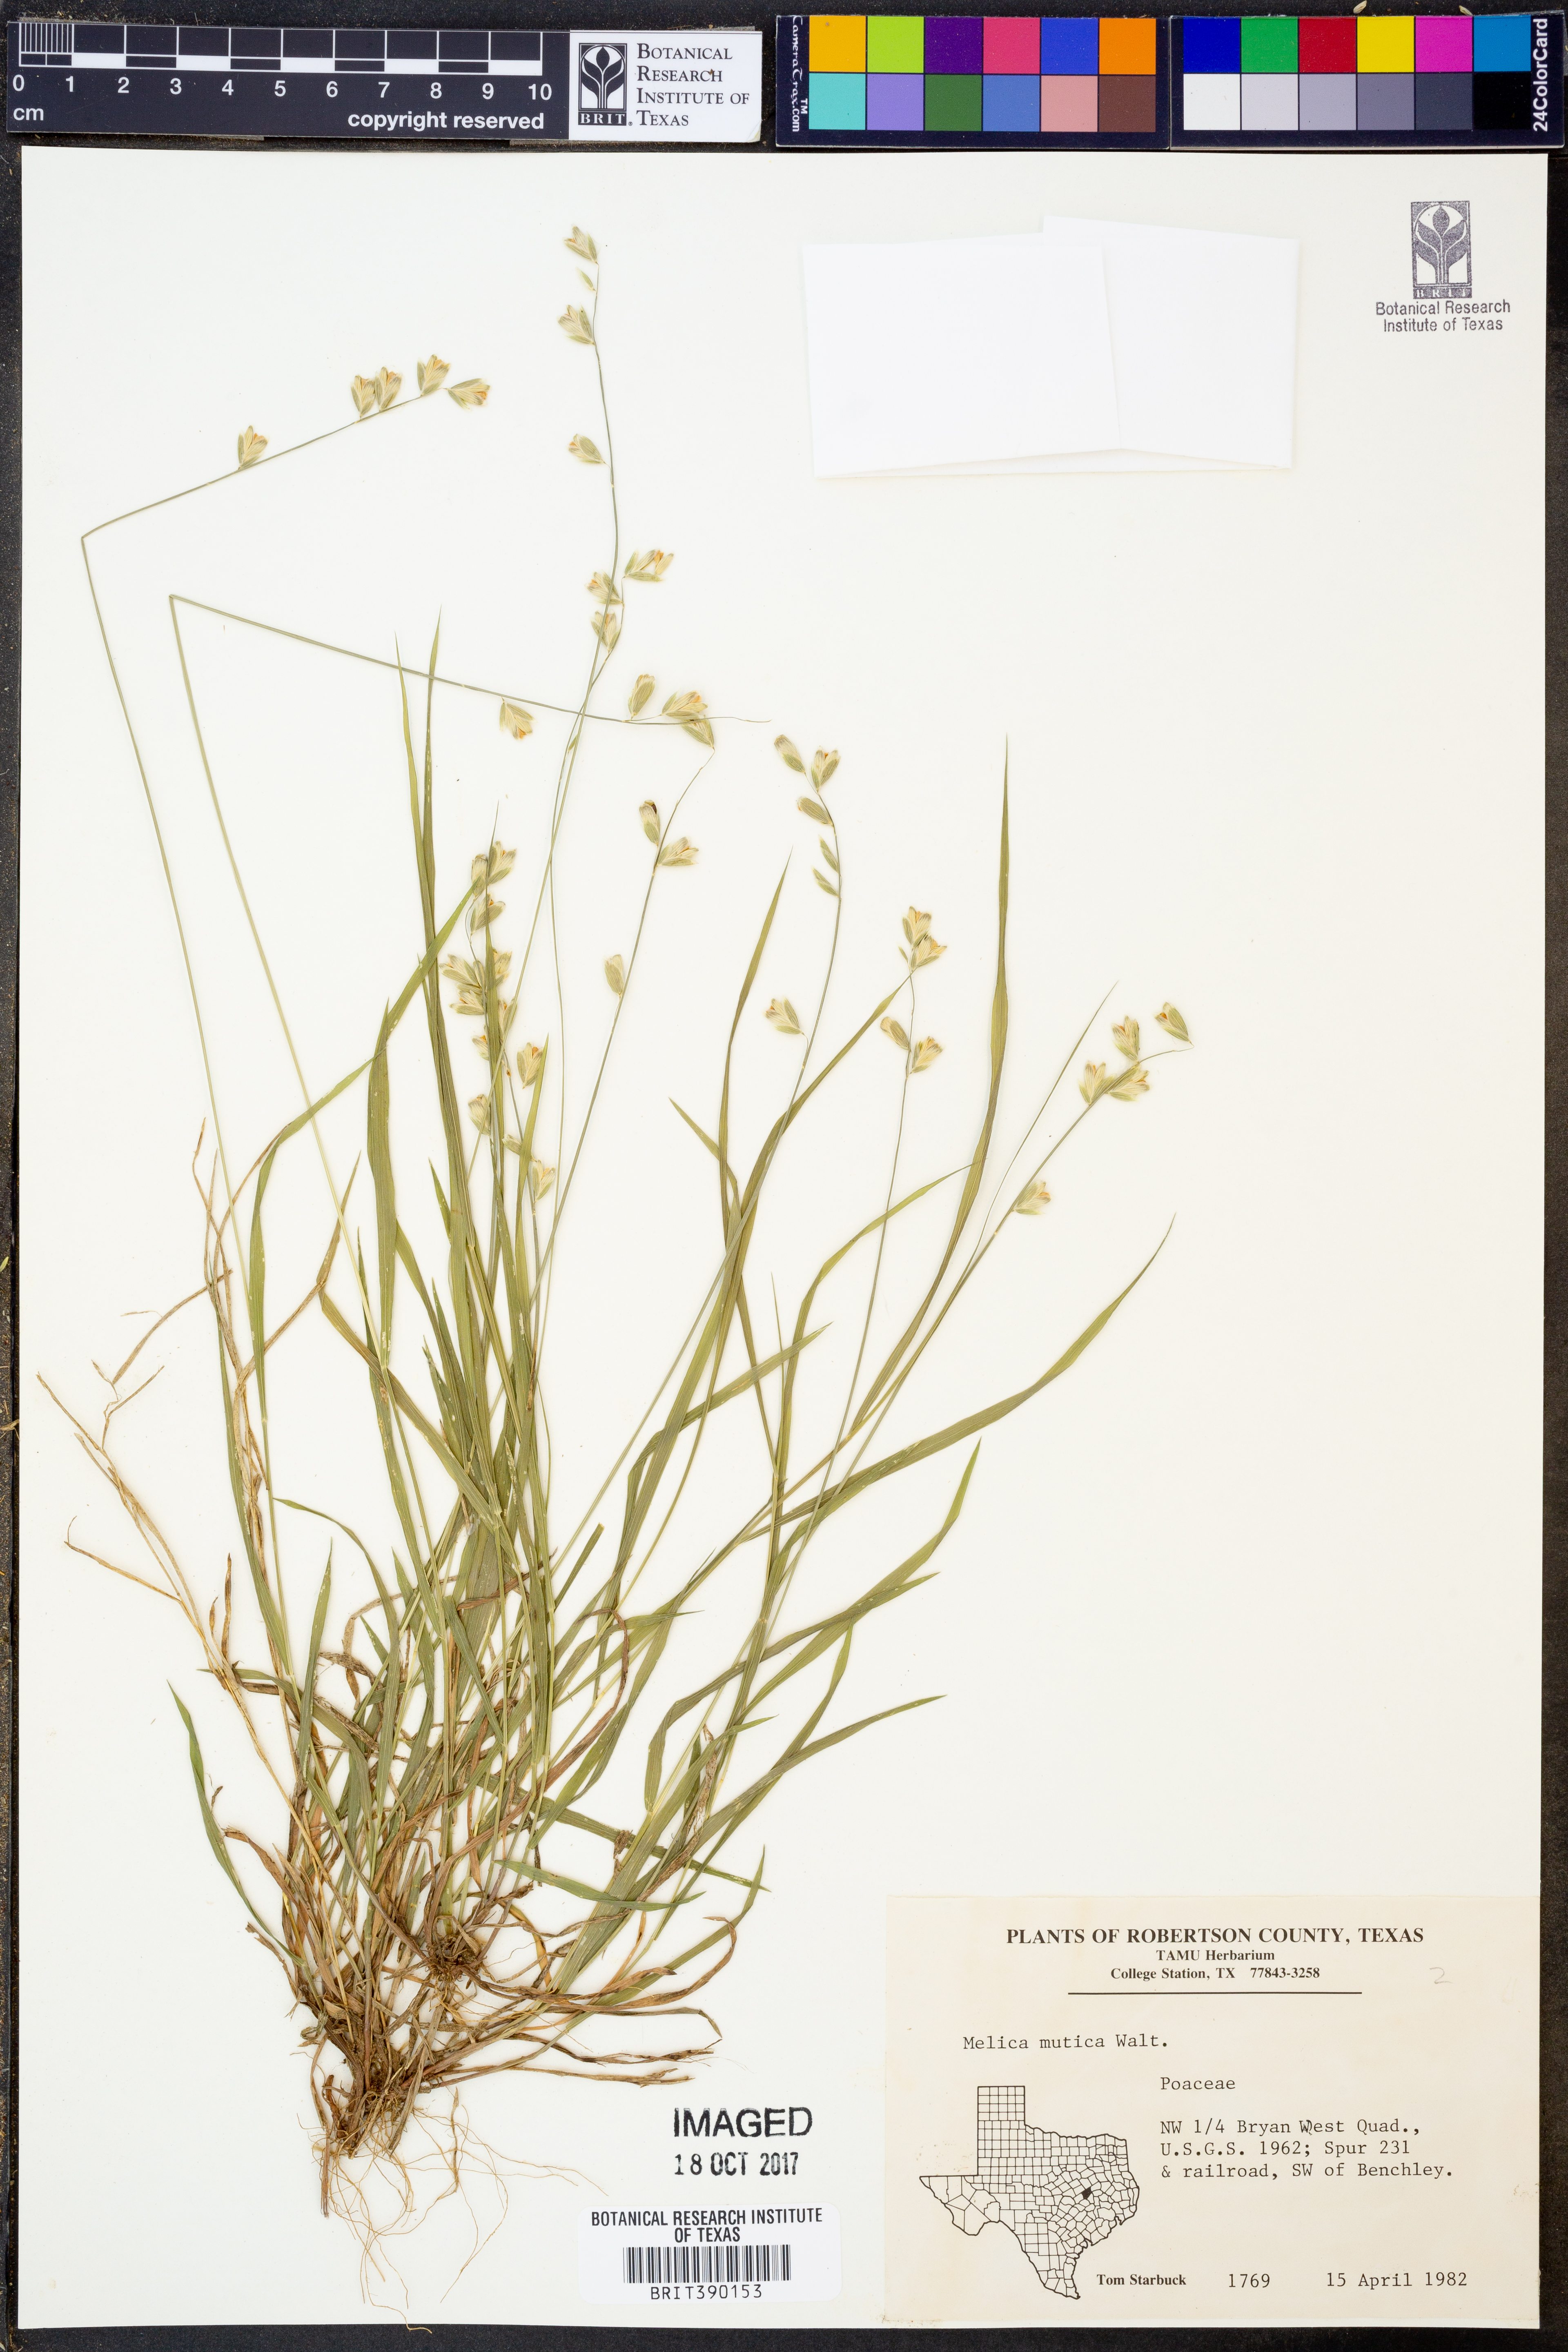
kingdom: Plantae
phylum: Tracheophyta
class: Liliopsida
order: Poales
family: Poaceae
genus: Melica
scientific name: Melica mutica
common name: Two-flower melic
